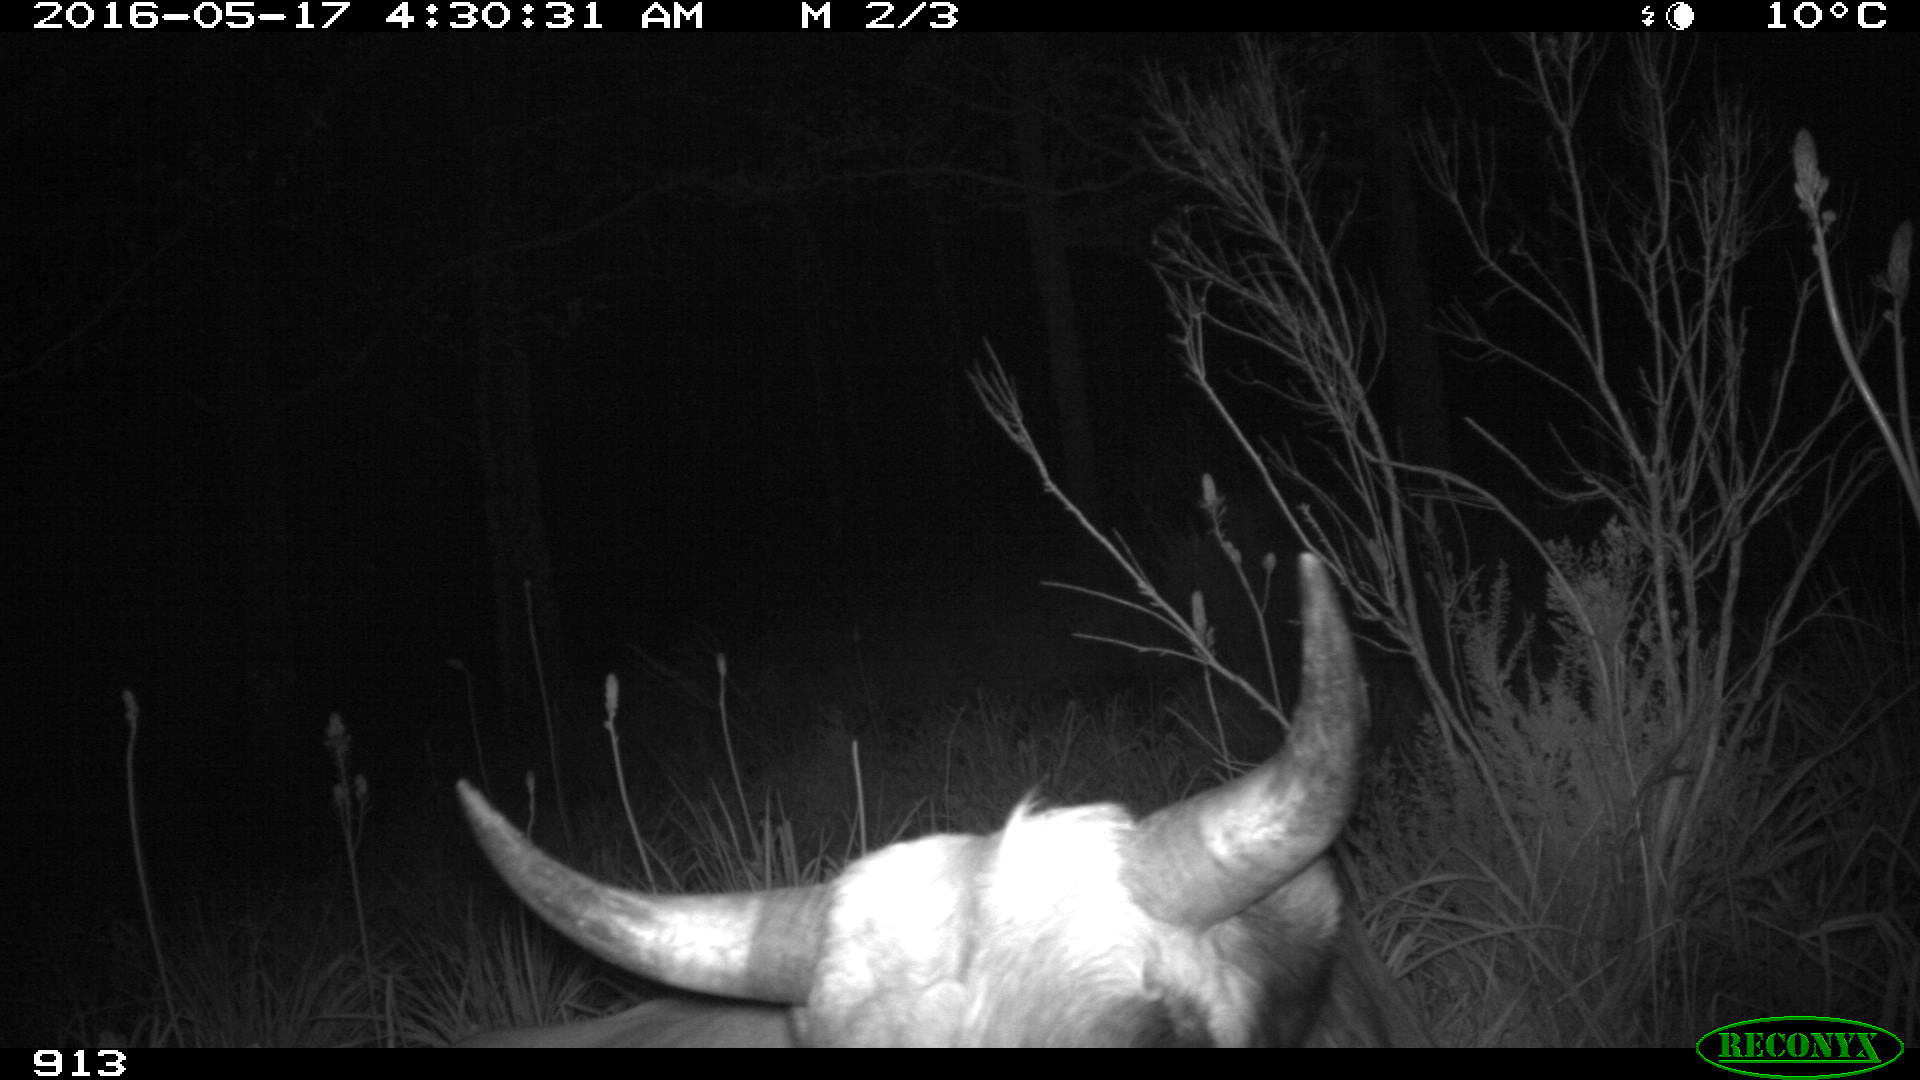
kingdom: Animalia
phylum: Chordata
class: Mammalia
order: Artiodactyla
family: Bovidae
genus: Bos
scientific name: Bos taurus
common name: Domesticated cattle
